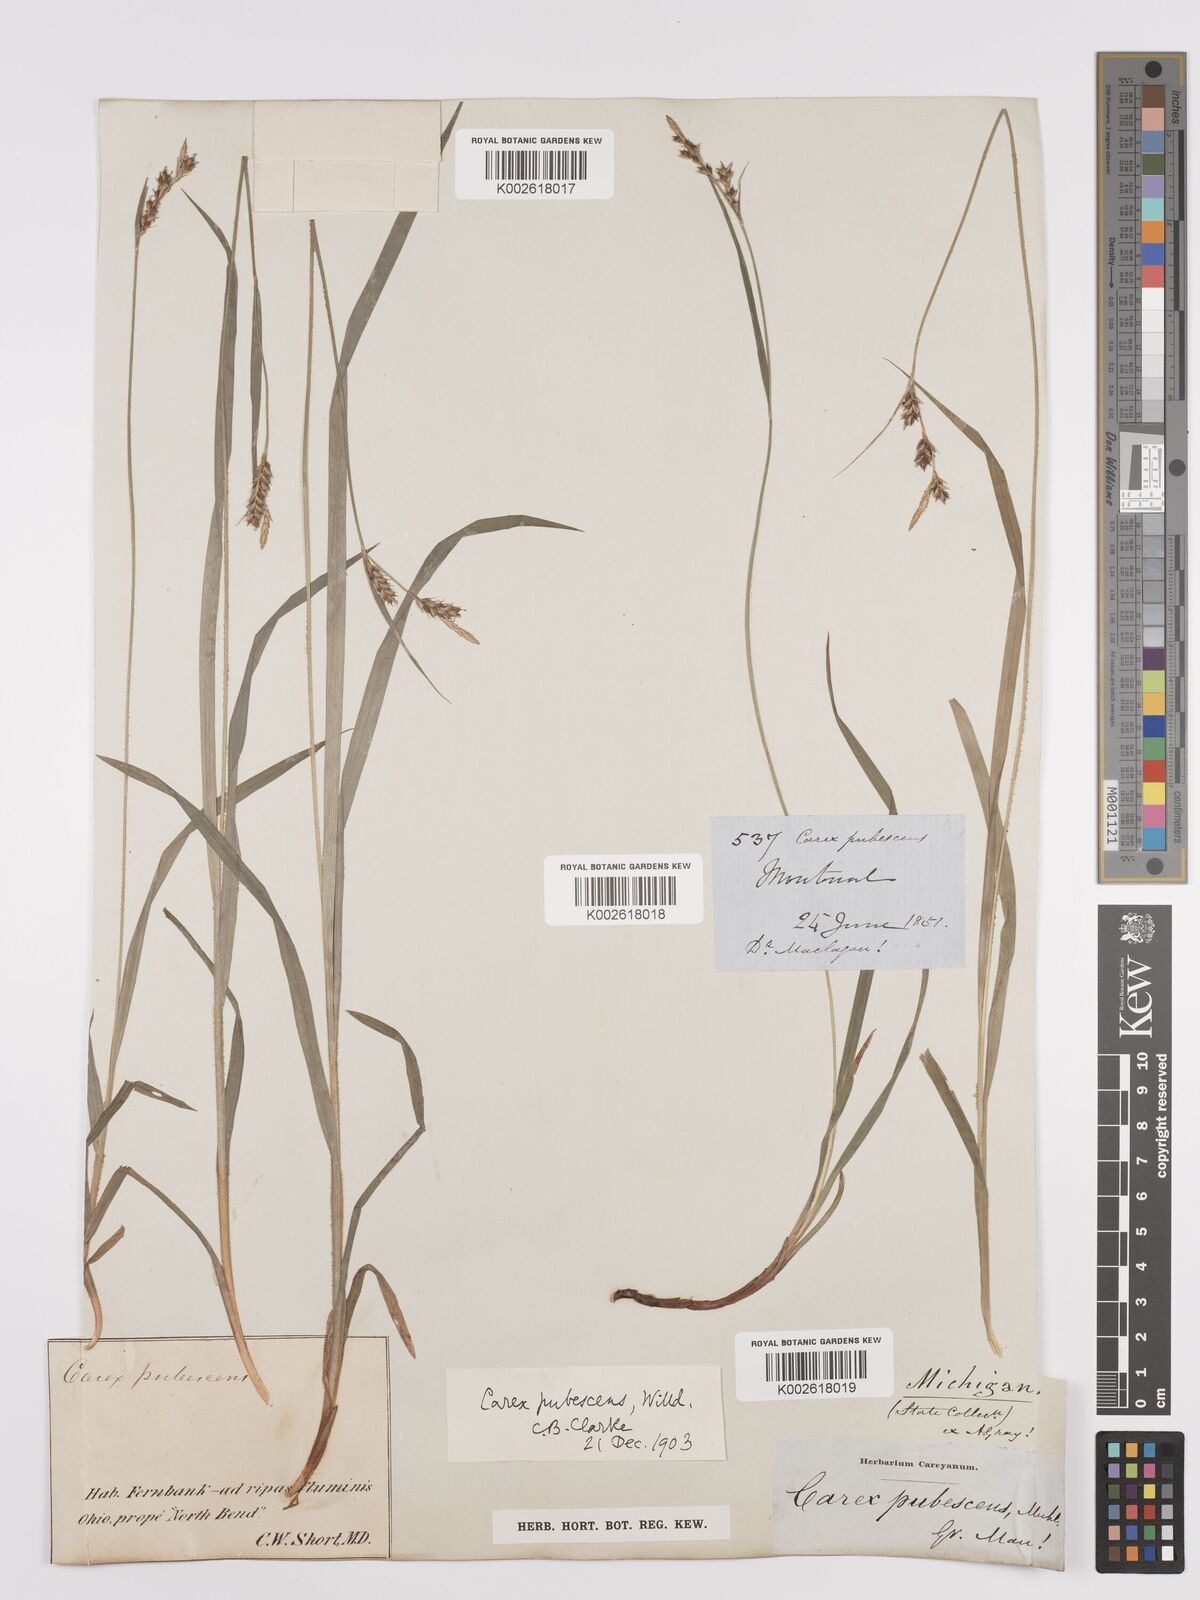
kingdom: Plantae
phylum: Tracheophyta
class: Liliopsida
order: Poales
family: Cyperaceae
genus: Carex
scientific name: Carex hirtifolia
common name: Hairy sedge
